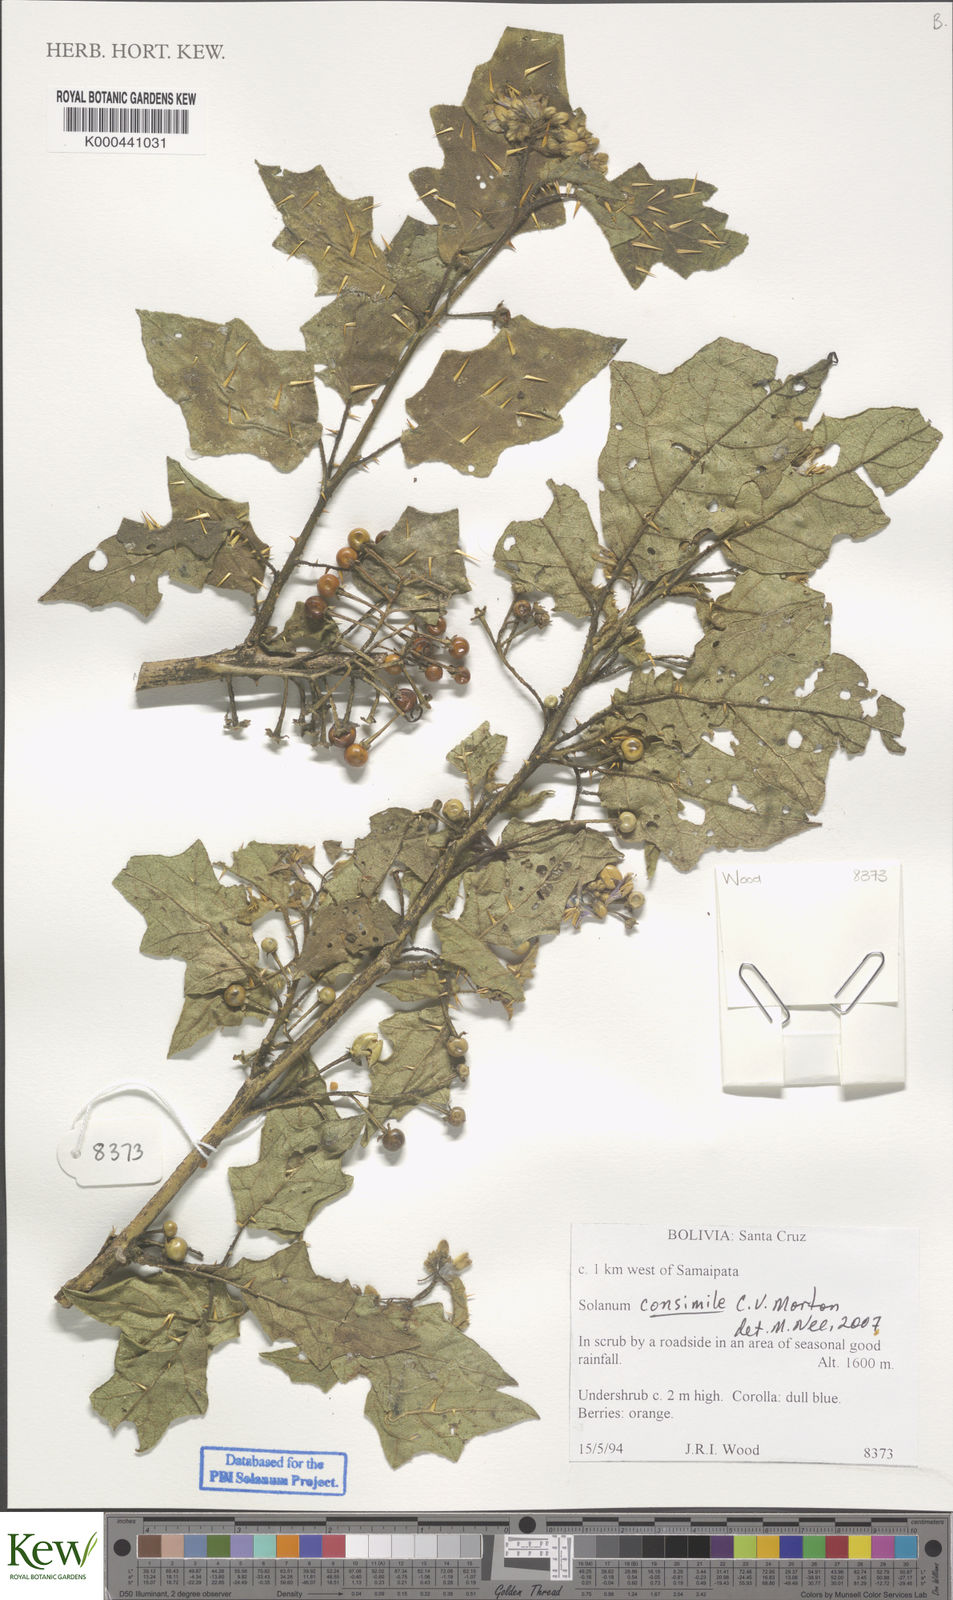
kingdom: Plantae
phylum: Tracheophyta
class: Magnoliopsida
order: Solanales
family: Solanaceae
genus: Solanum
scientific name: Solanum consimile
